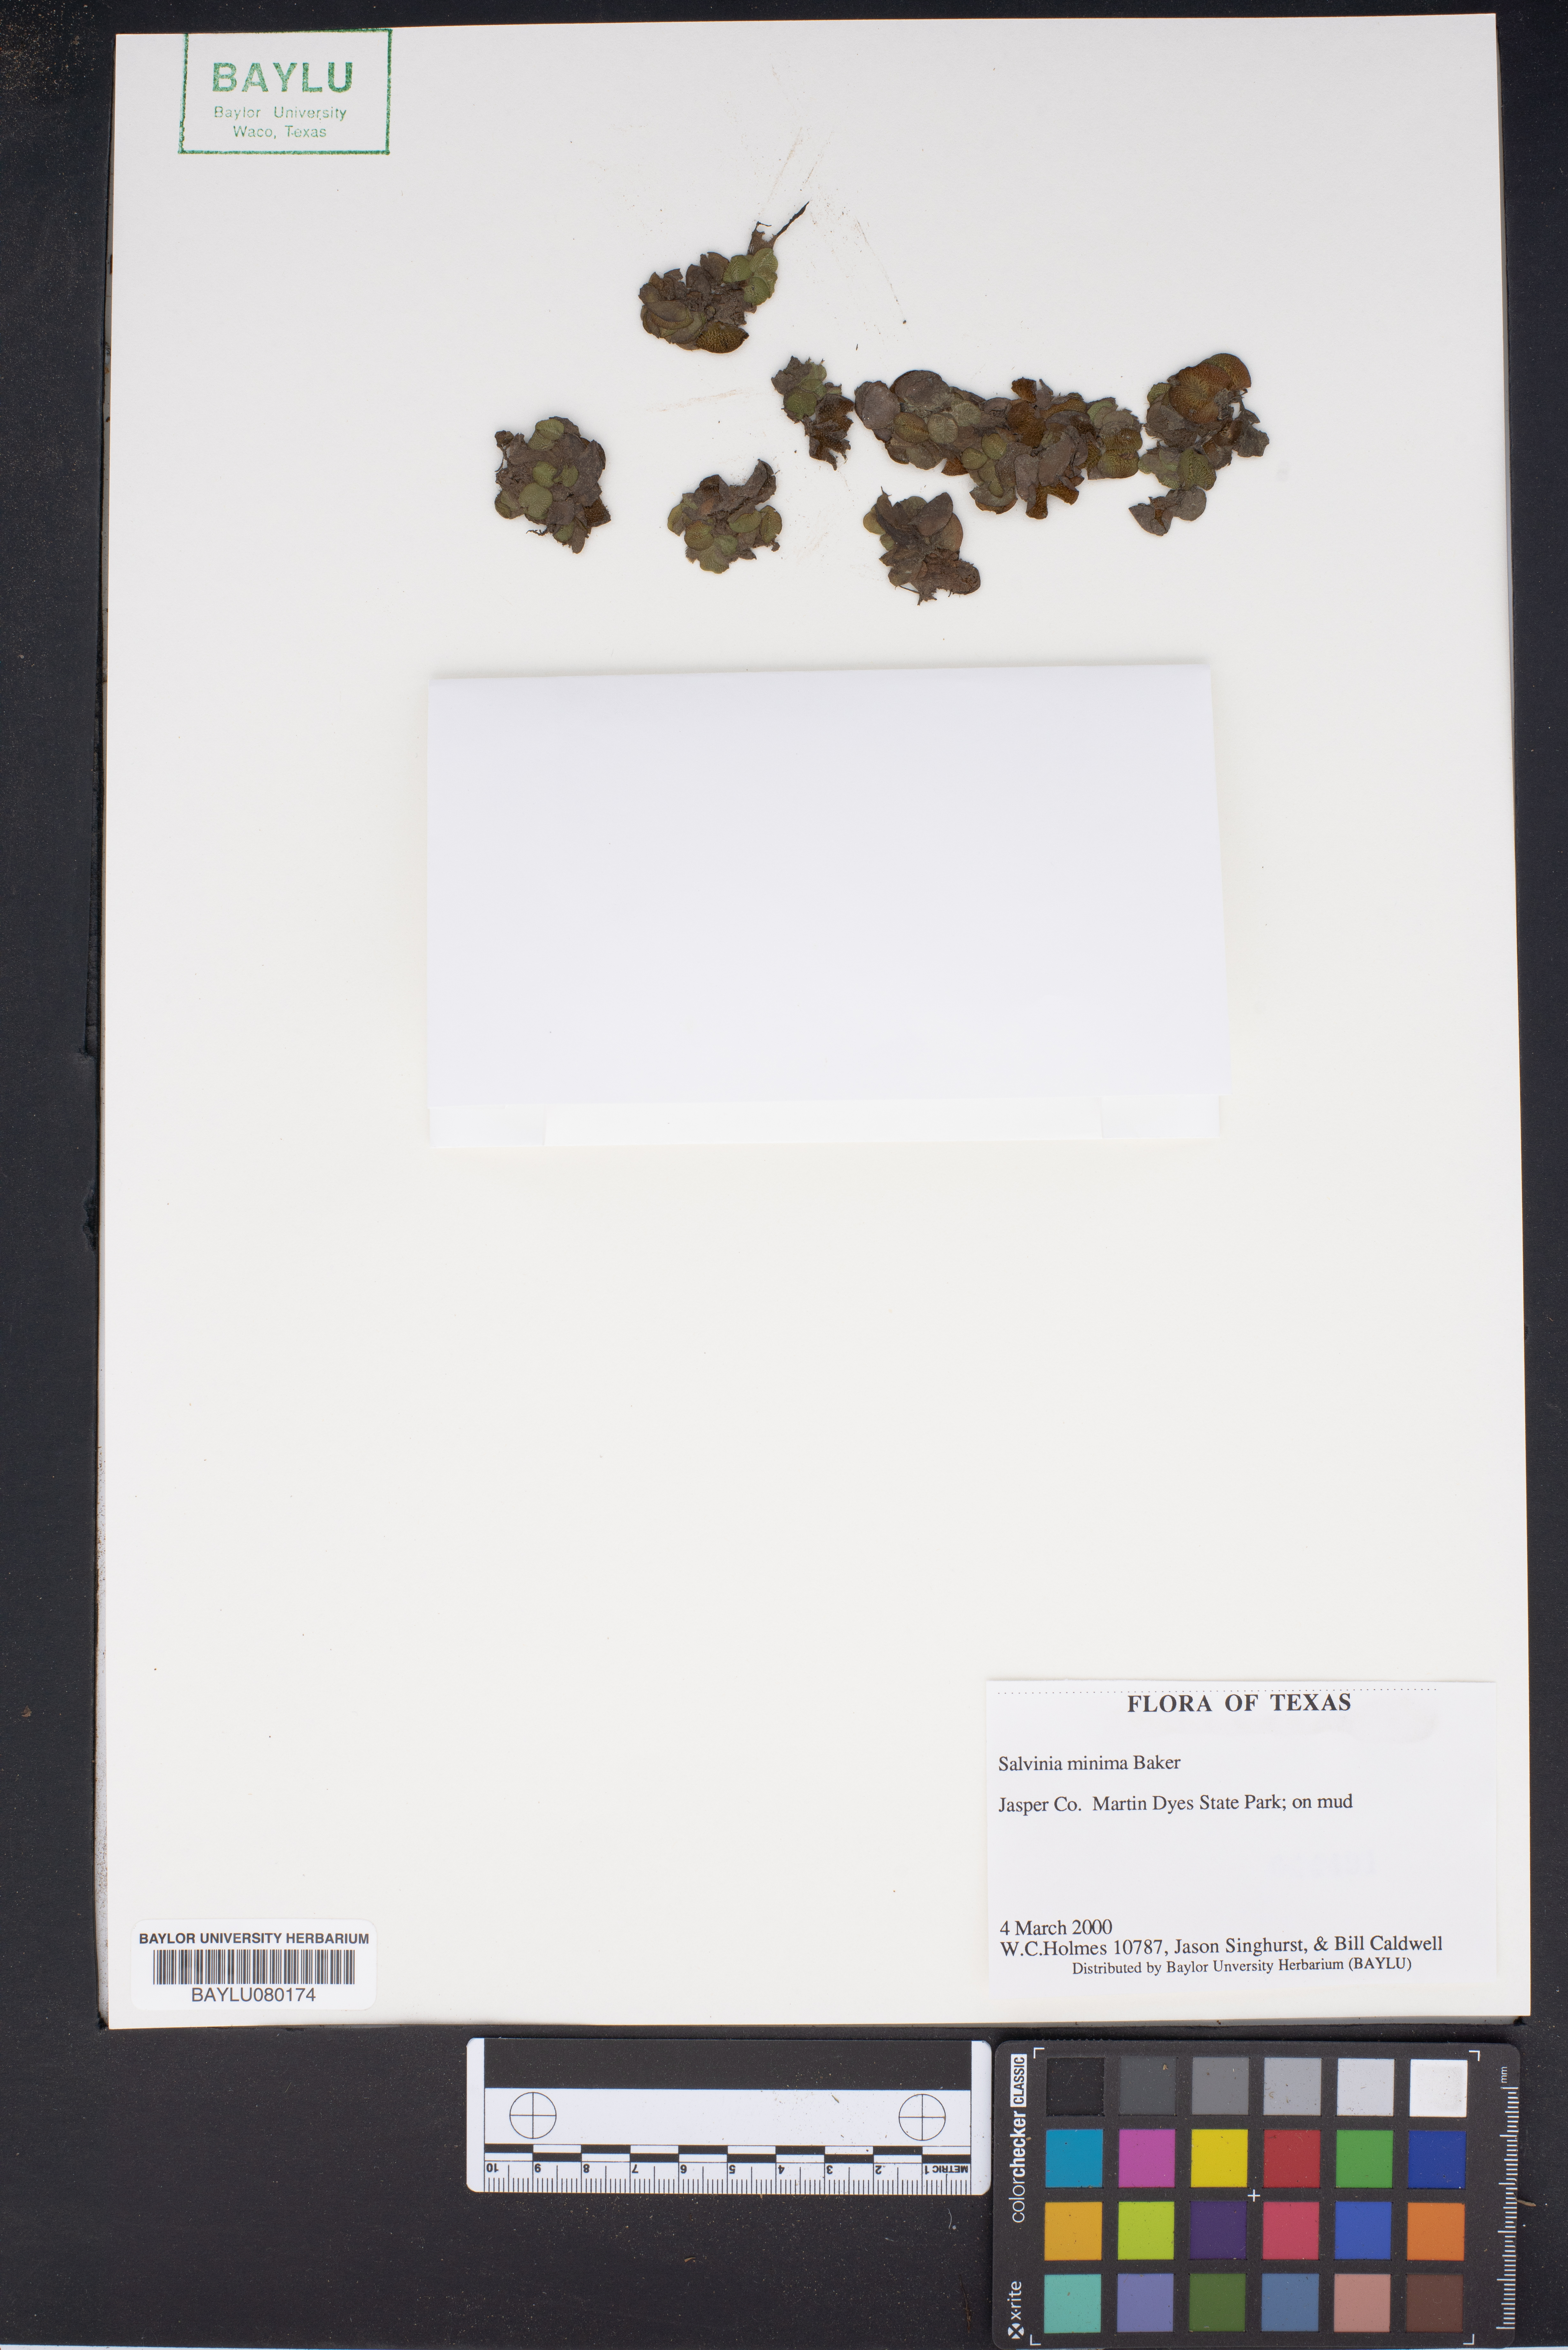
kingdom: Plantae
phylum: Tracheophyta
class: Polypodiopsida
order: Salviniales
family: Salviniaceae
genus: Salvinia
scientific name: Salvinia minima
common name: Water spangles
